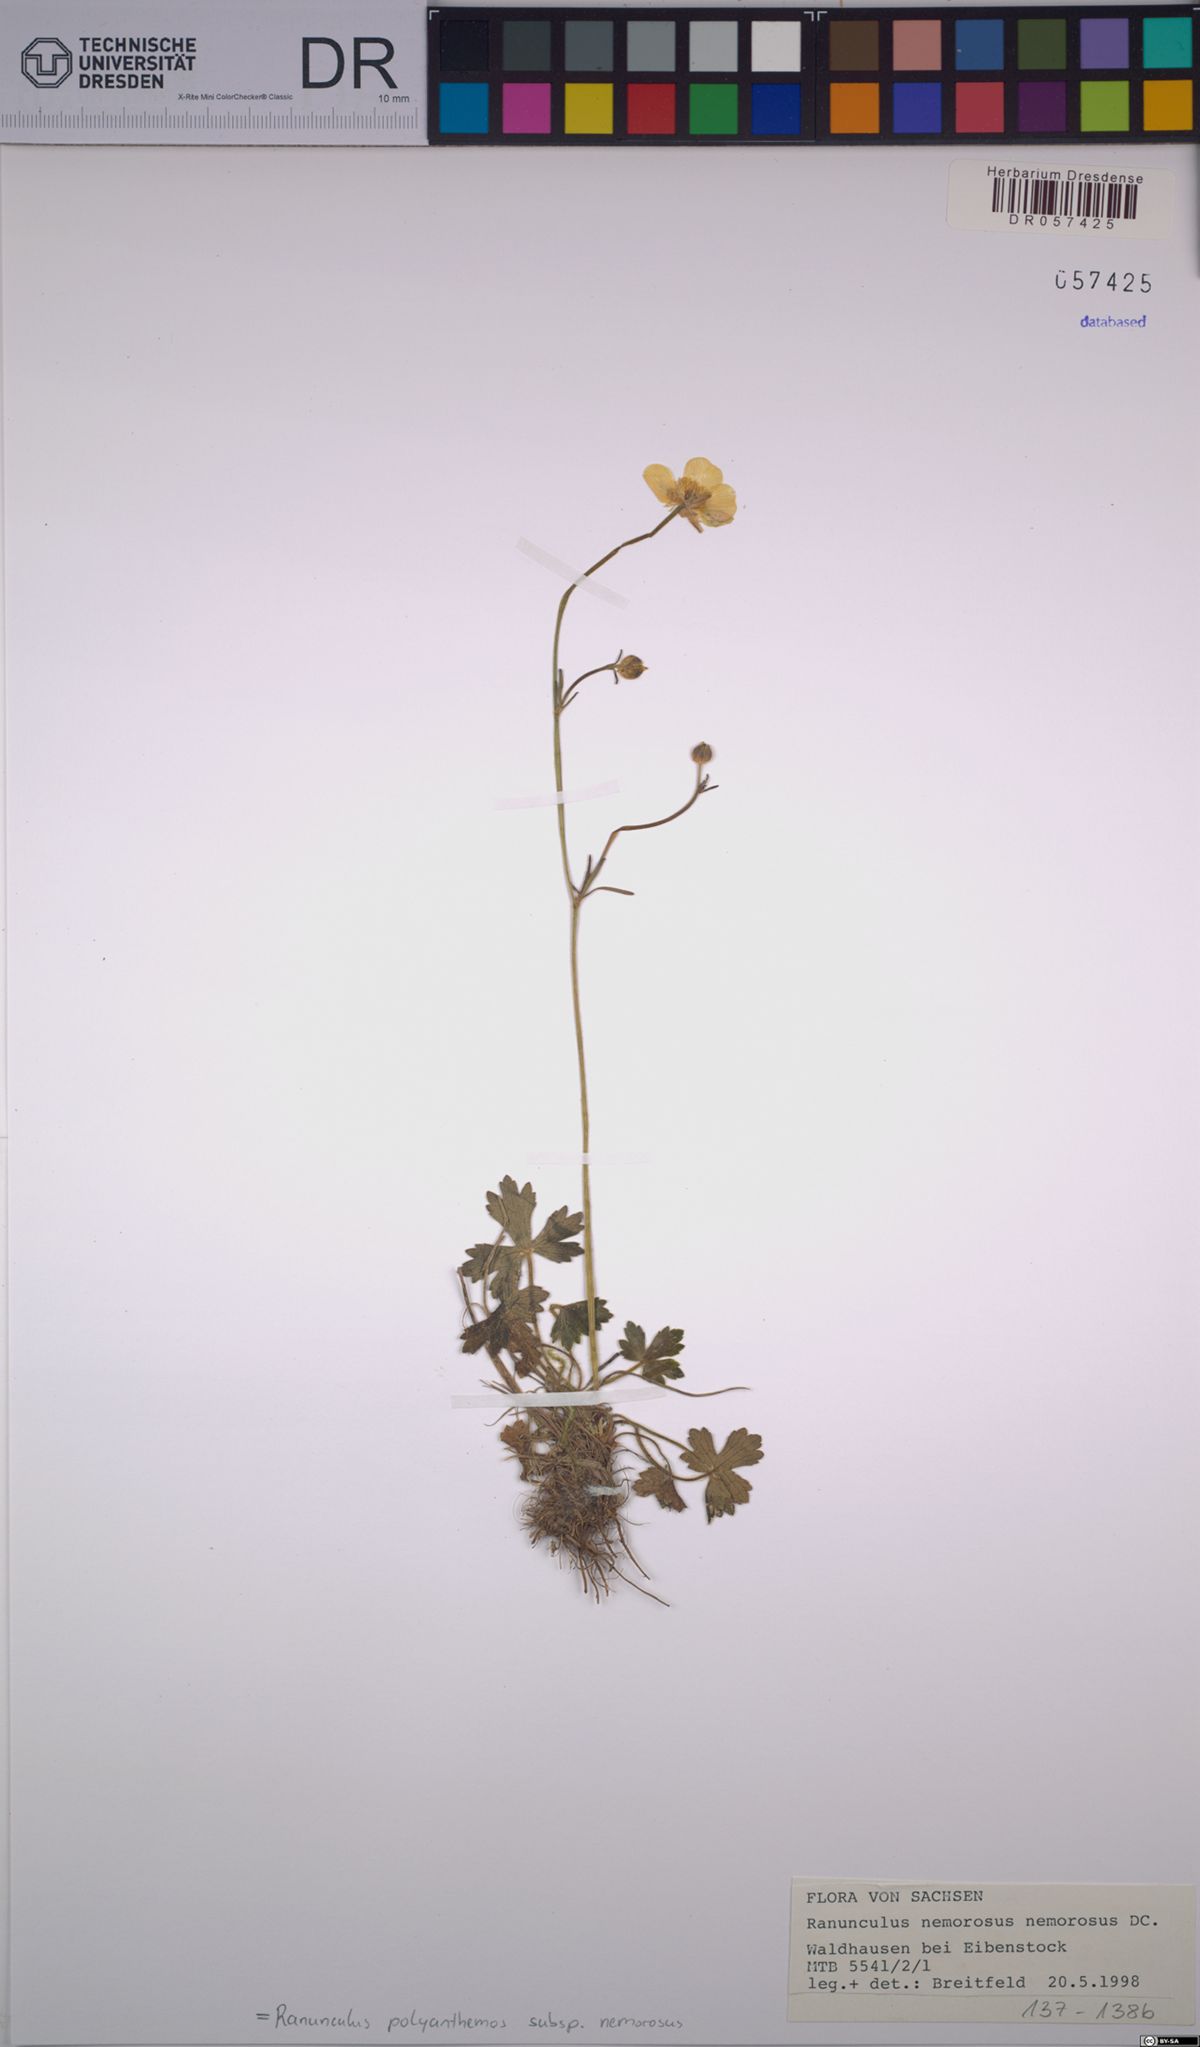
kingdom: Plantae
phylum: Tracheophyta
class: Magnoliopsida
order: Ranunculales
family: Ranunculaceae
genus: Ranunculus
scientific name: Ranunculus polyanthemos
